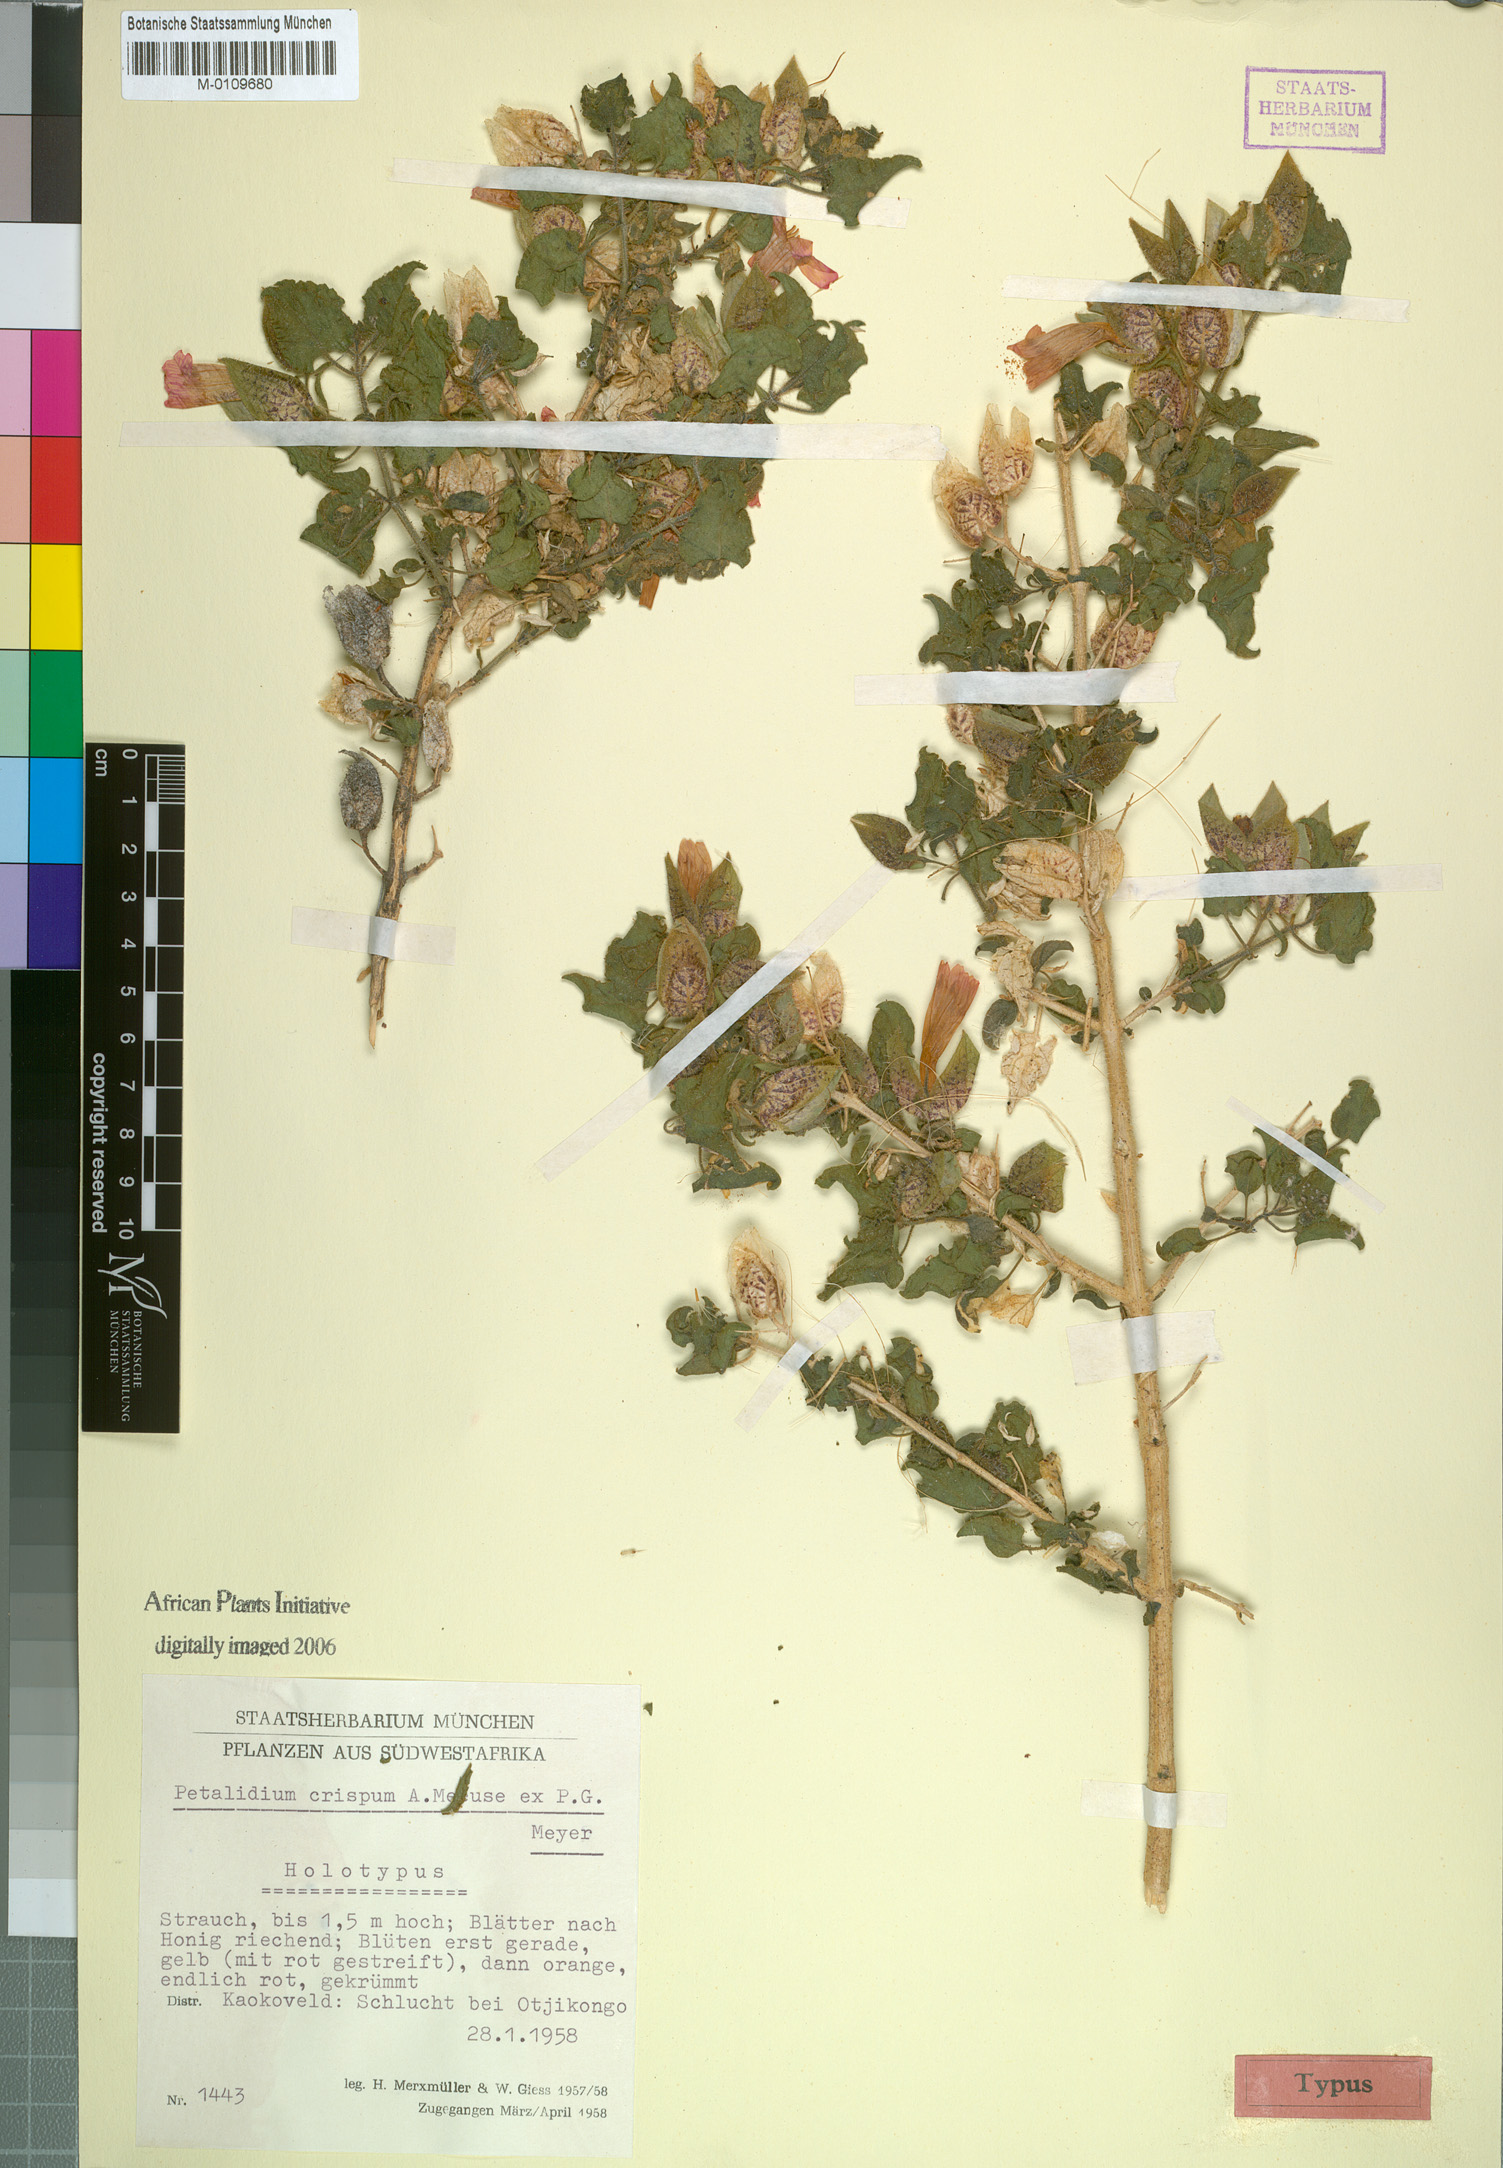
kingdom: Plantae
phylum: Tracheophyta
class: Magnoliopsida
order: Lamiales
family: Acanthaceae
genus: Petalidium
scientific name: Petalidium crispum
